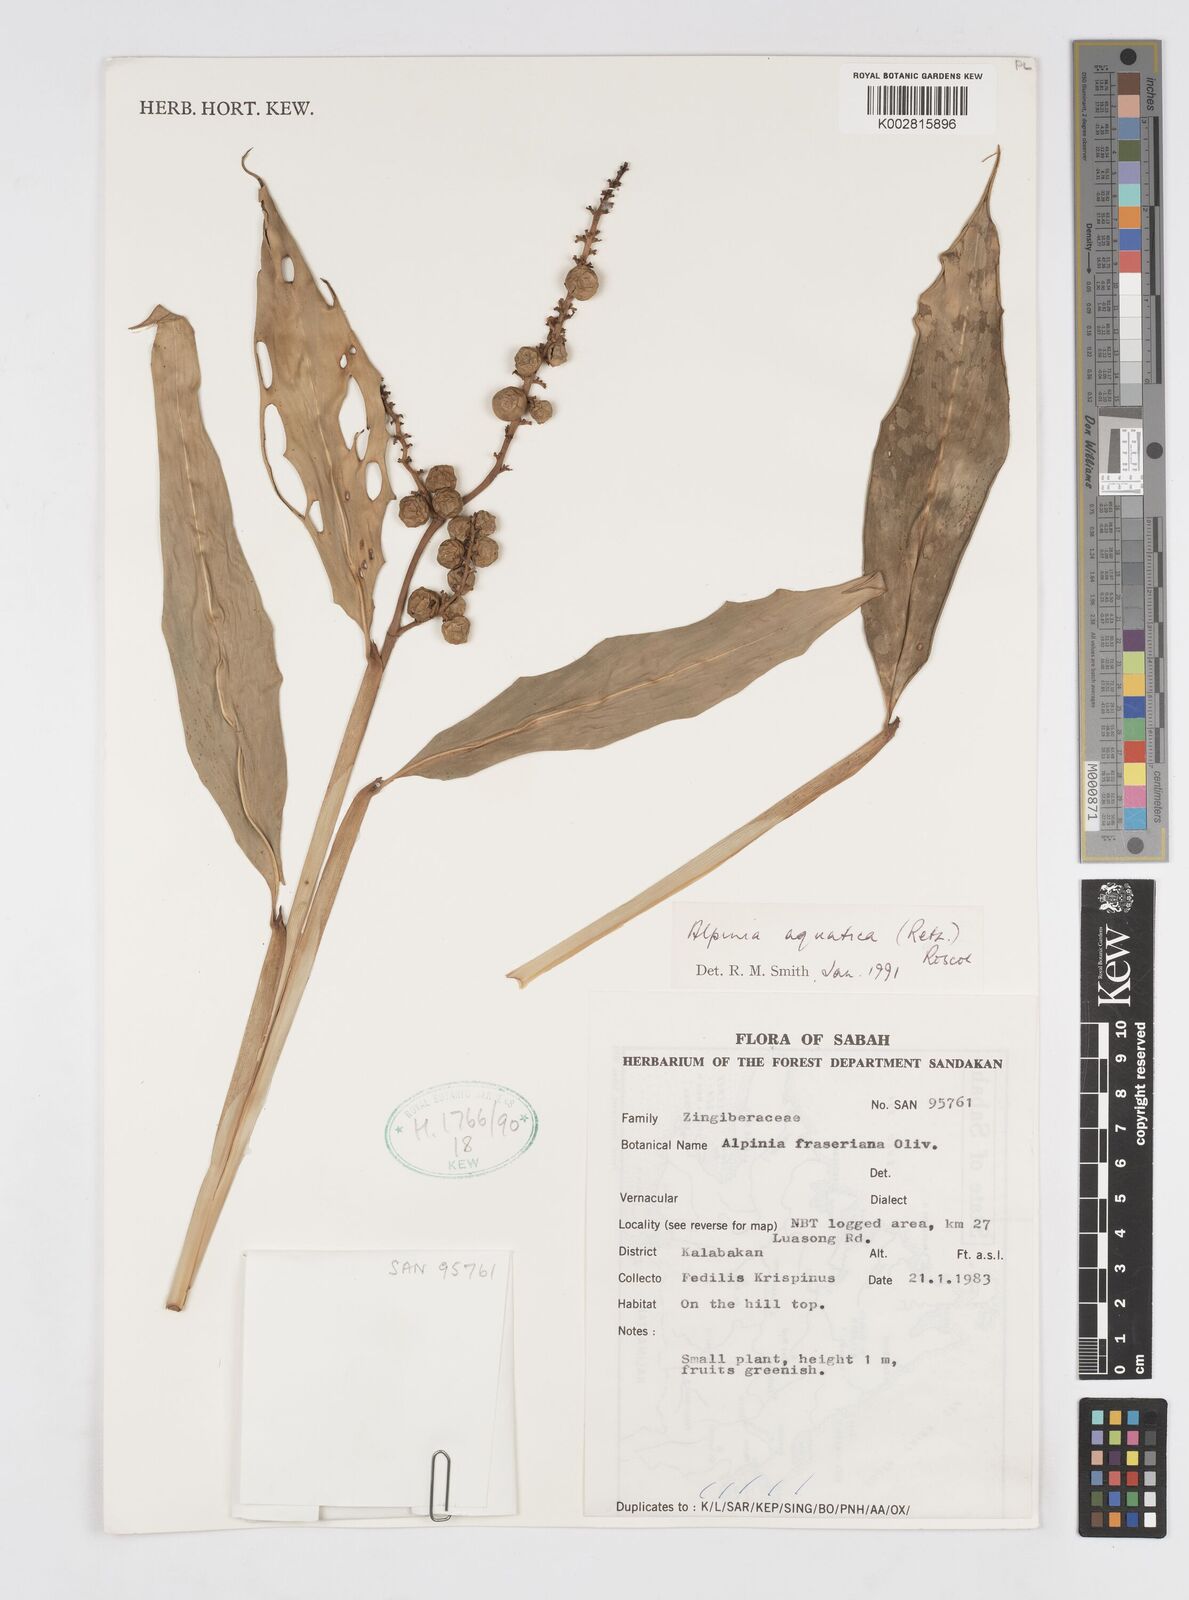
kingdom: Plantae
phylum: Tracheophyta
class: Liliopsida
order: Zingiberales
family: Zingiberaceae
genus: Alpinia
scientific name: Alpinia aquatica
